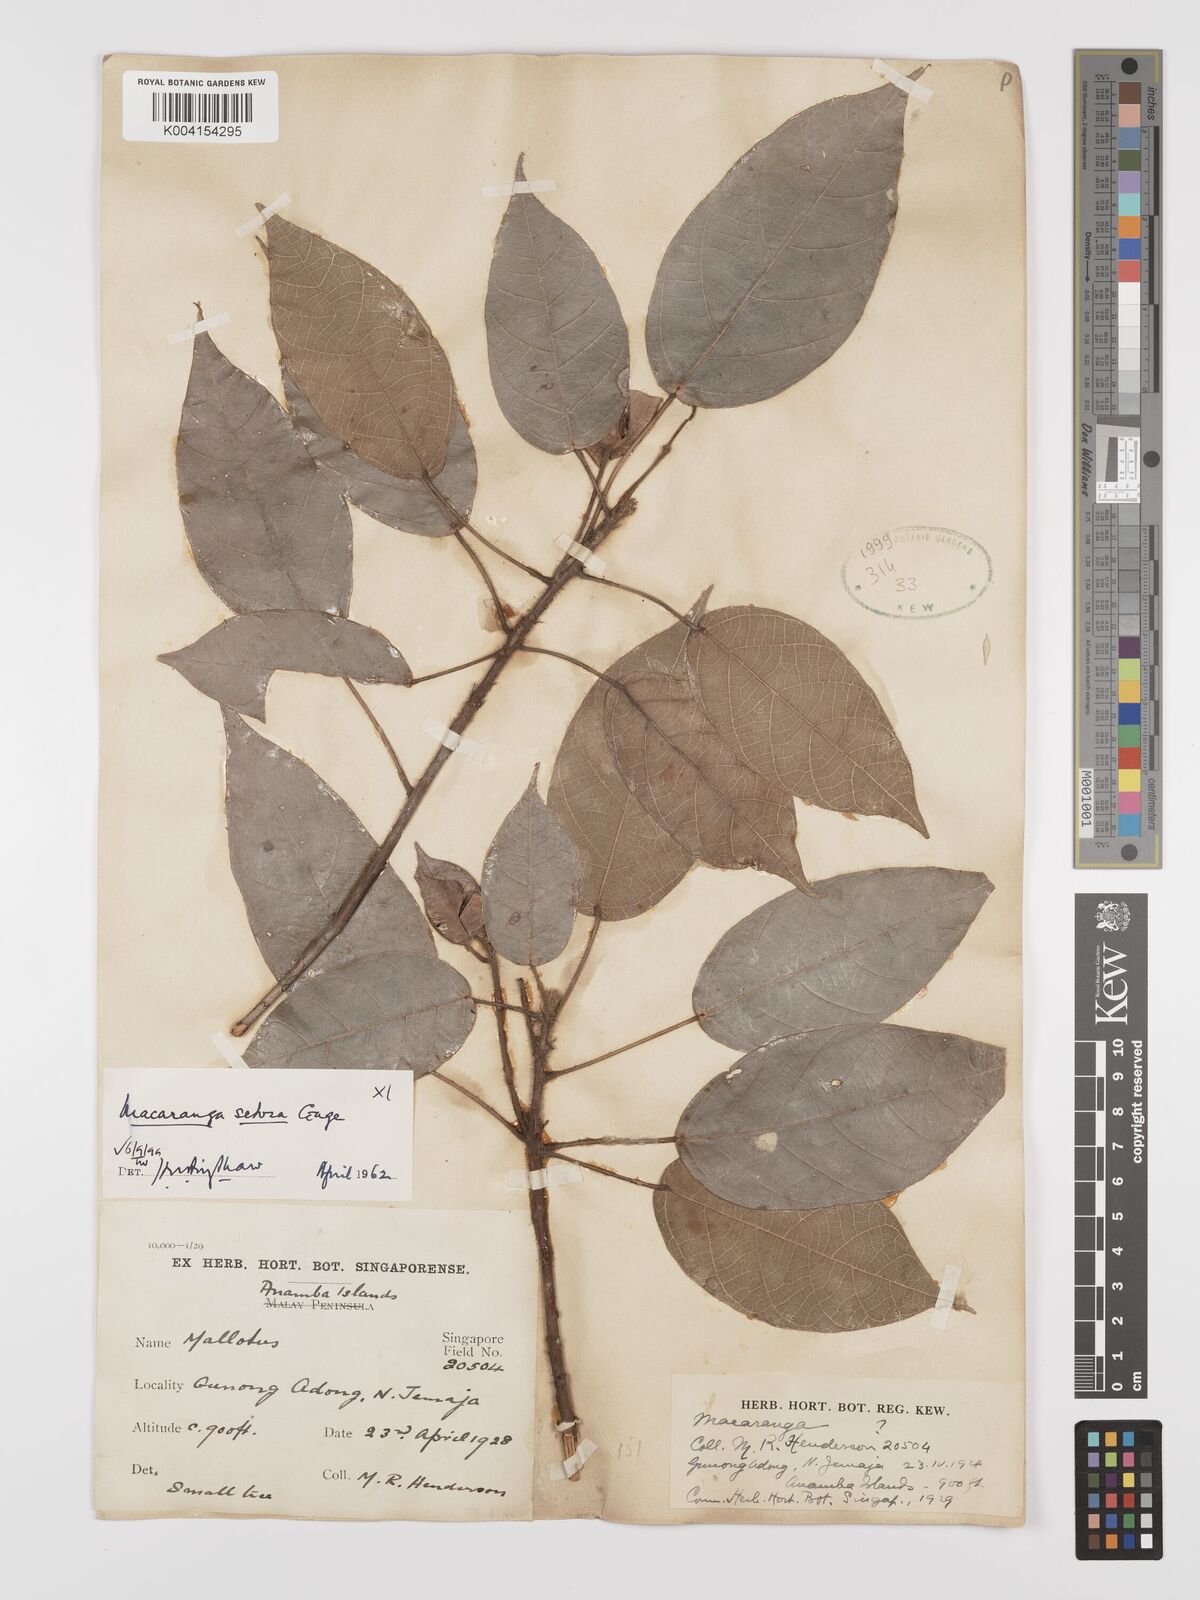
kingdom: Plantae
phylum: Tracheophyta
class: Magnoliopsida
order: Malpighiales
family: Euphorbiaceae
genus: Macaranga
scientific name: Macaranga setosa
